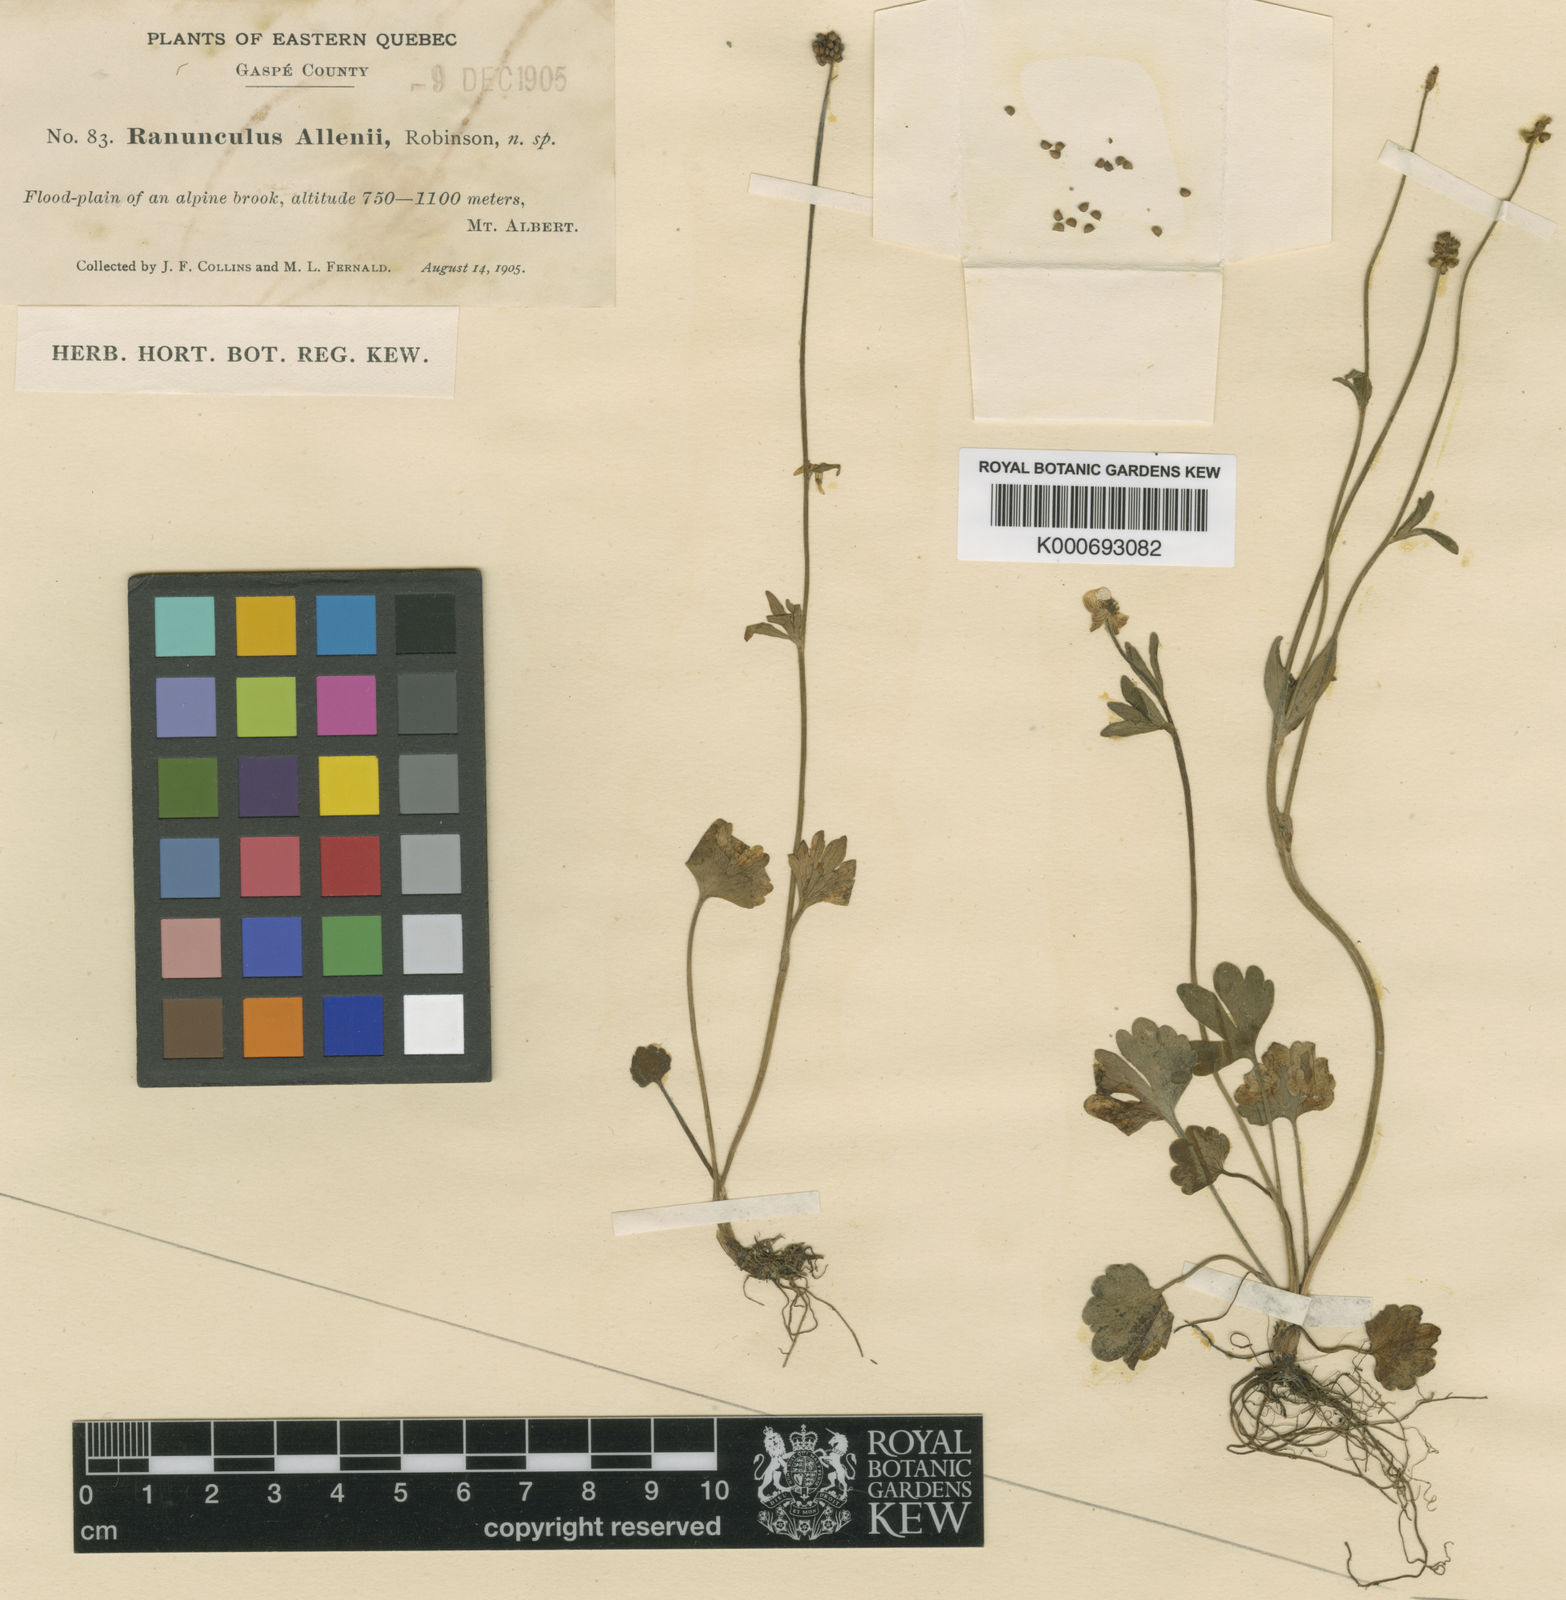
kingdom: Plantae
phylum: Tracheophyta
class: Magnoliopsida
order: Ranunculales
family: Ranunculaceae
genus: Ranunculus
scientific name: Ranunculus allenii
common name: Allen's buttercup
